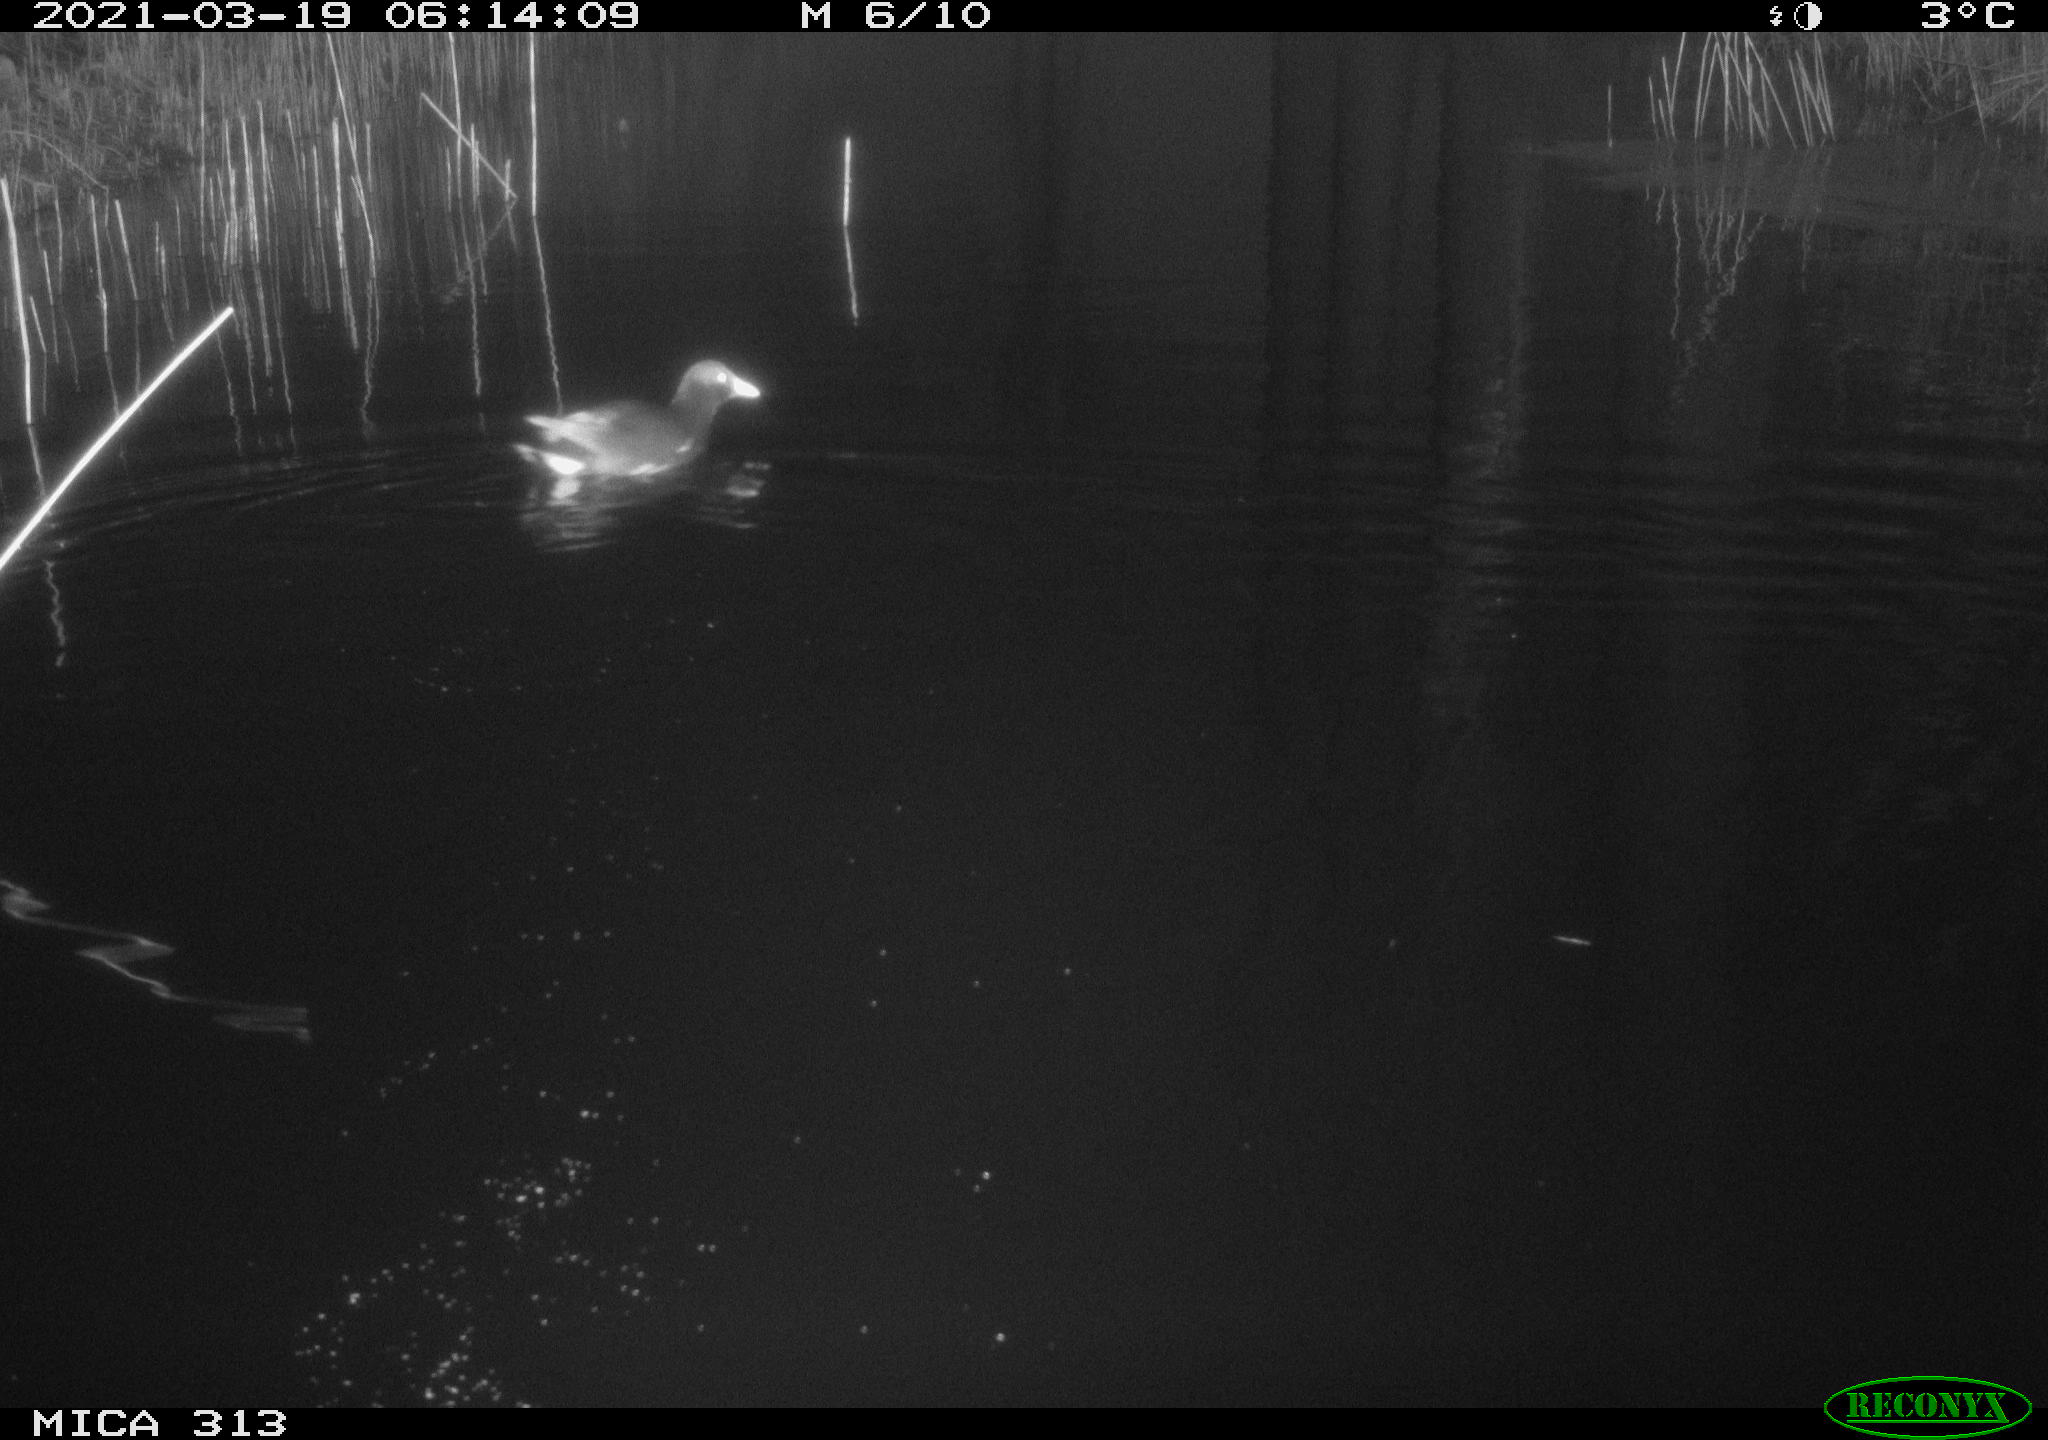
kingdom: Animalia
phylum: Chordata
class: Aves
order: Gruiformes
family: Rallidae
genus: Gallinula
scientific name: Gallinula chloropus
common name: Common moorhen
